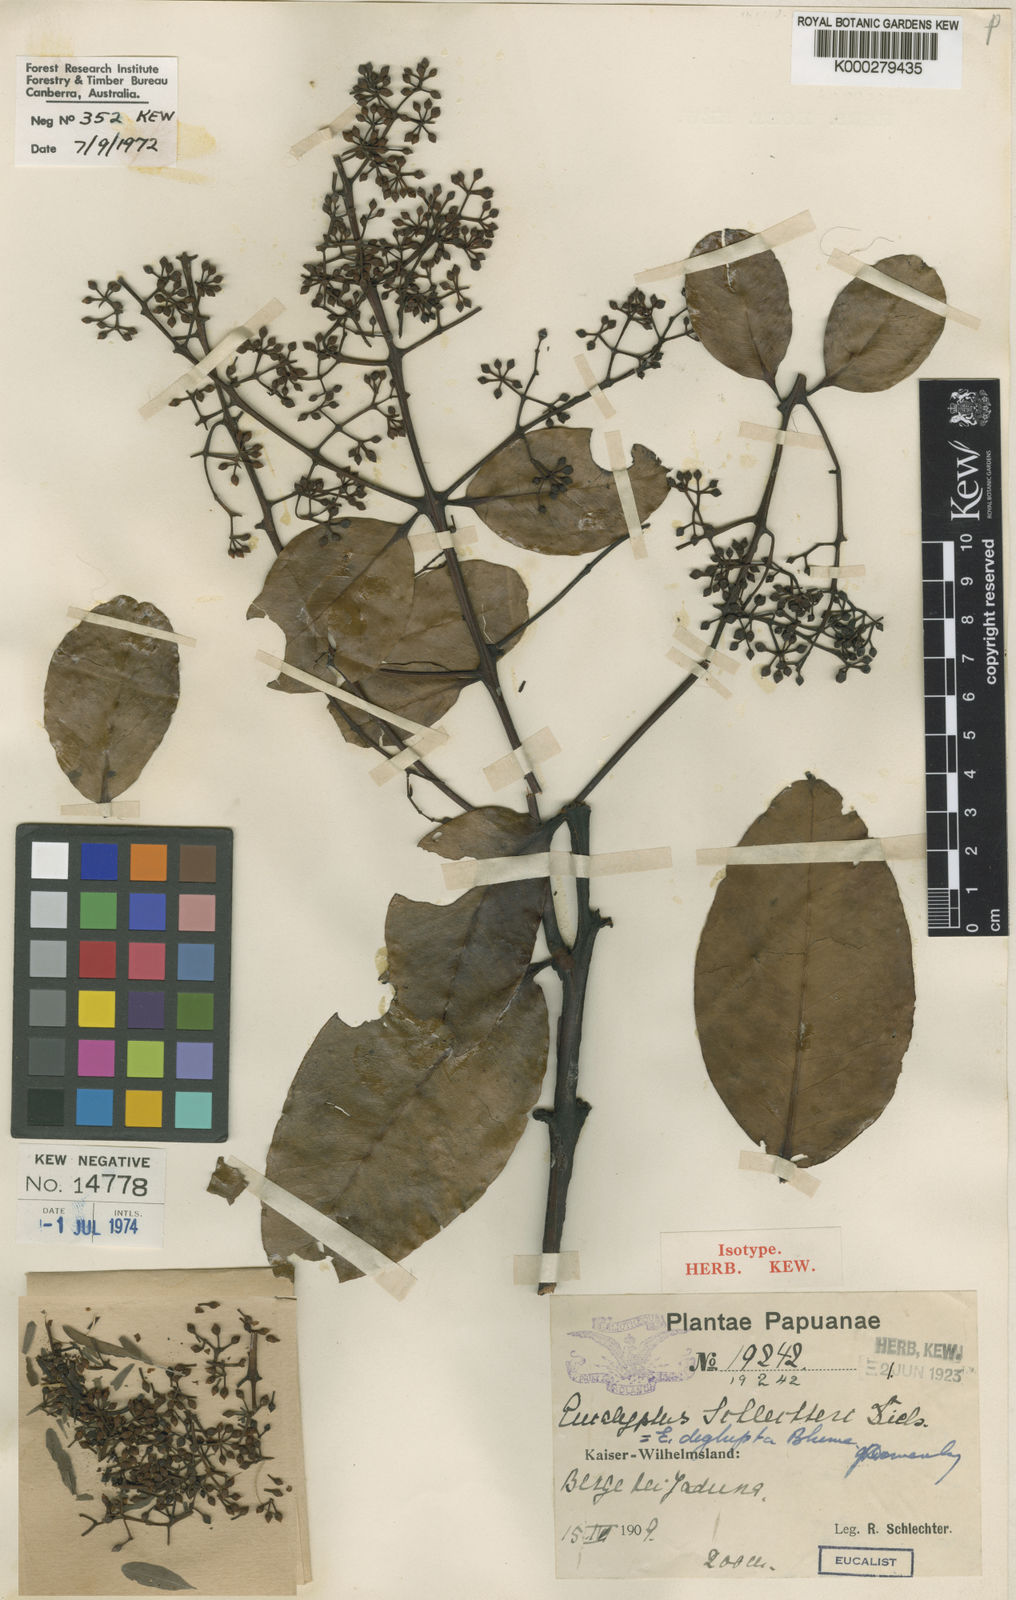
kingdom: Plantae
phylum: Tracheophyta
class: Magnoliopsida
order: Myrtales
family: Myrtaceae
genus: Eucalyptus
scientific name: Eucalyptus deglupta
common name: Mindanao gum
